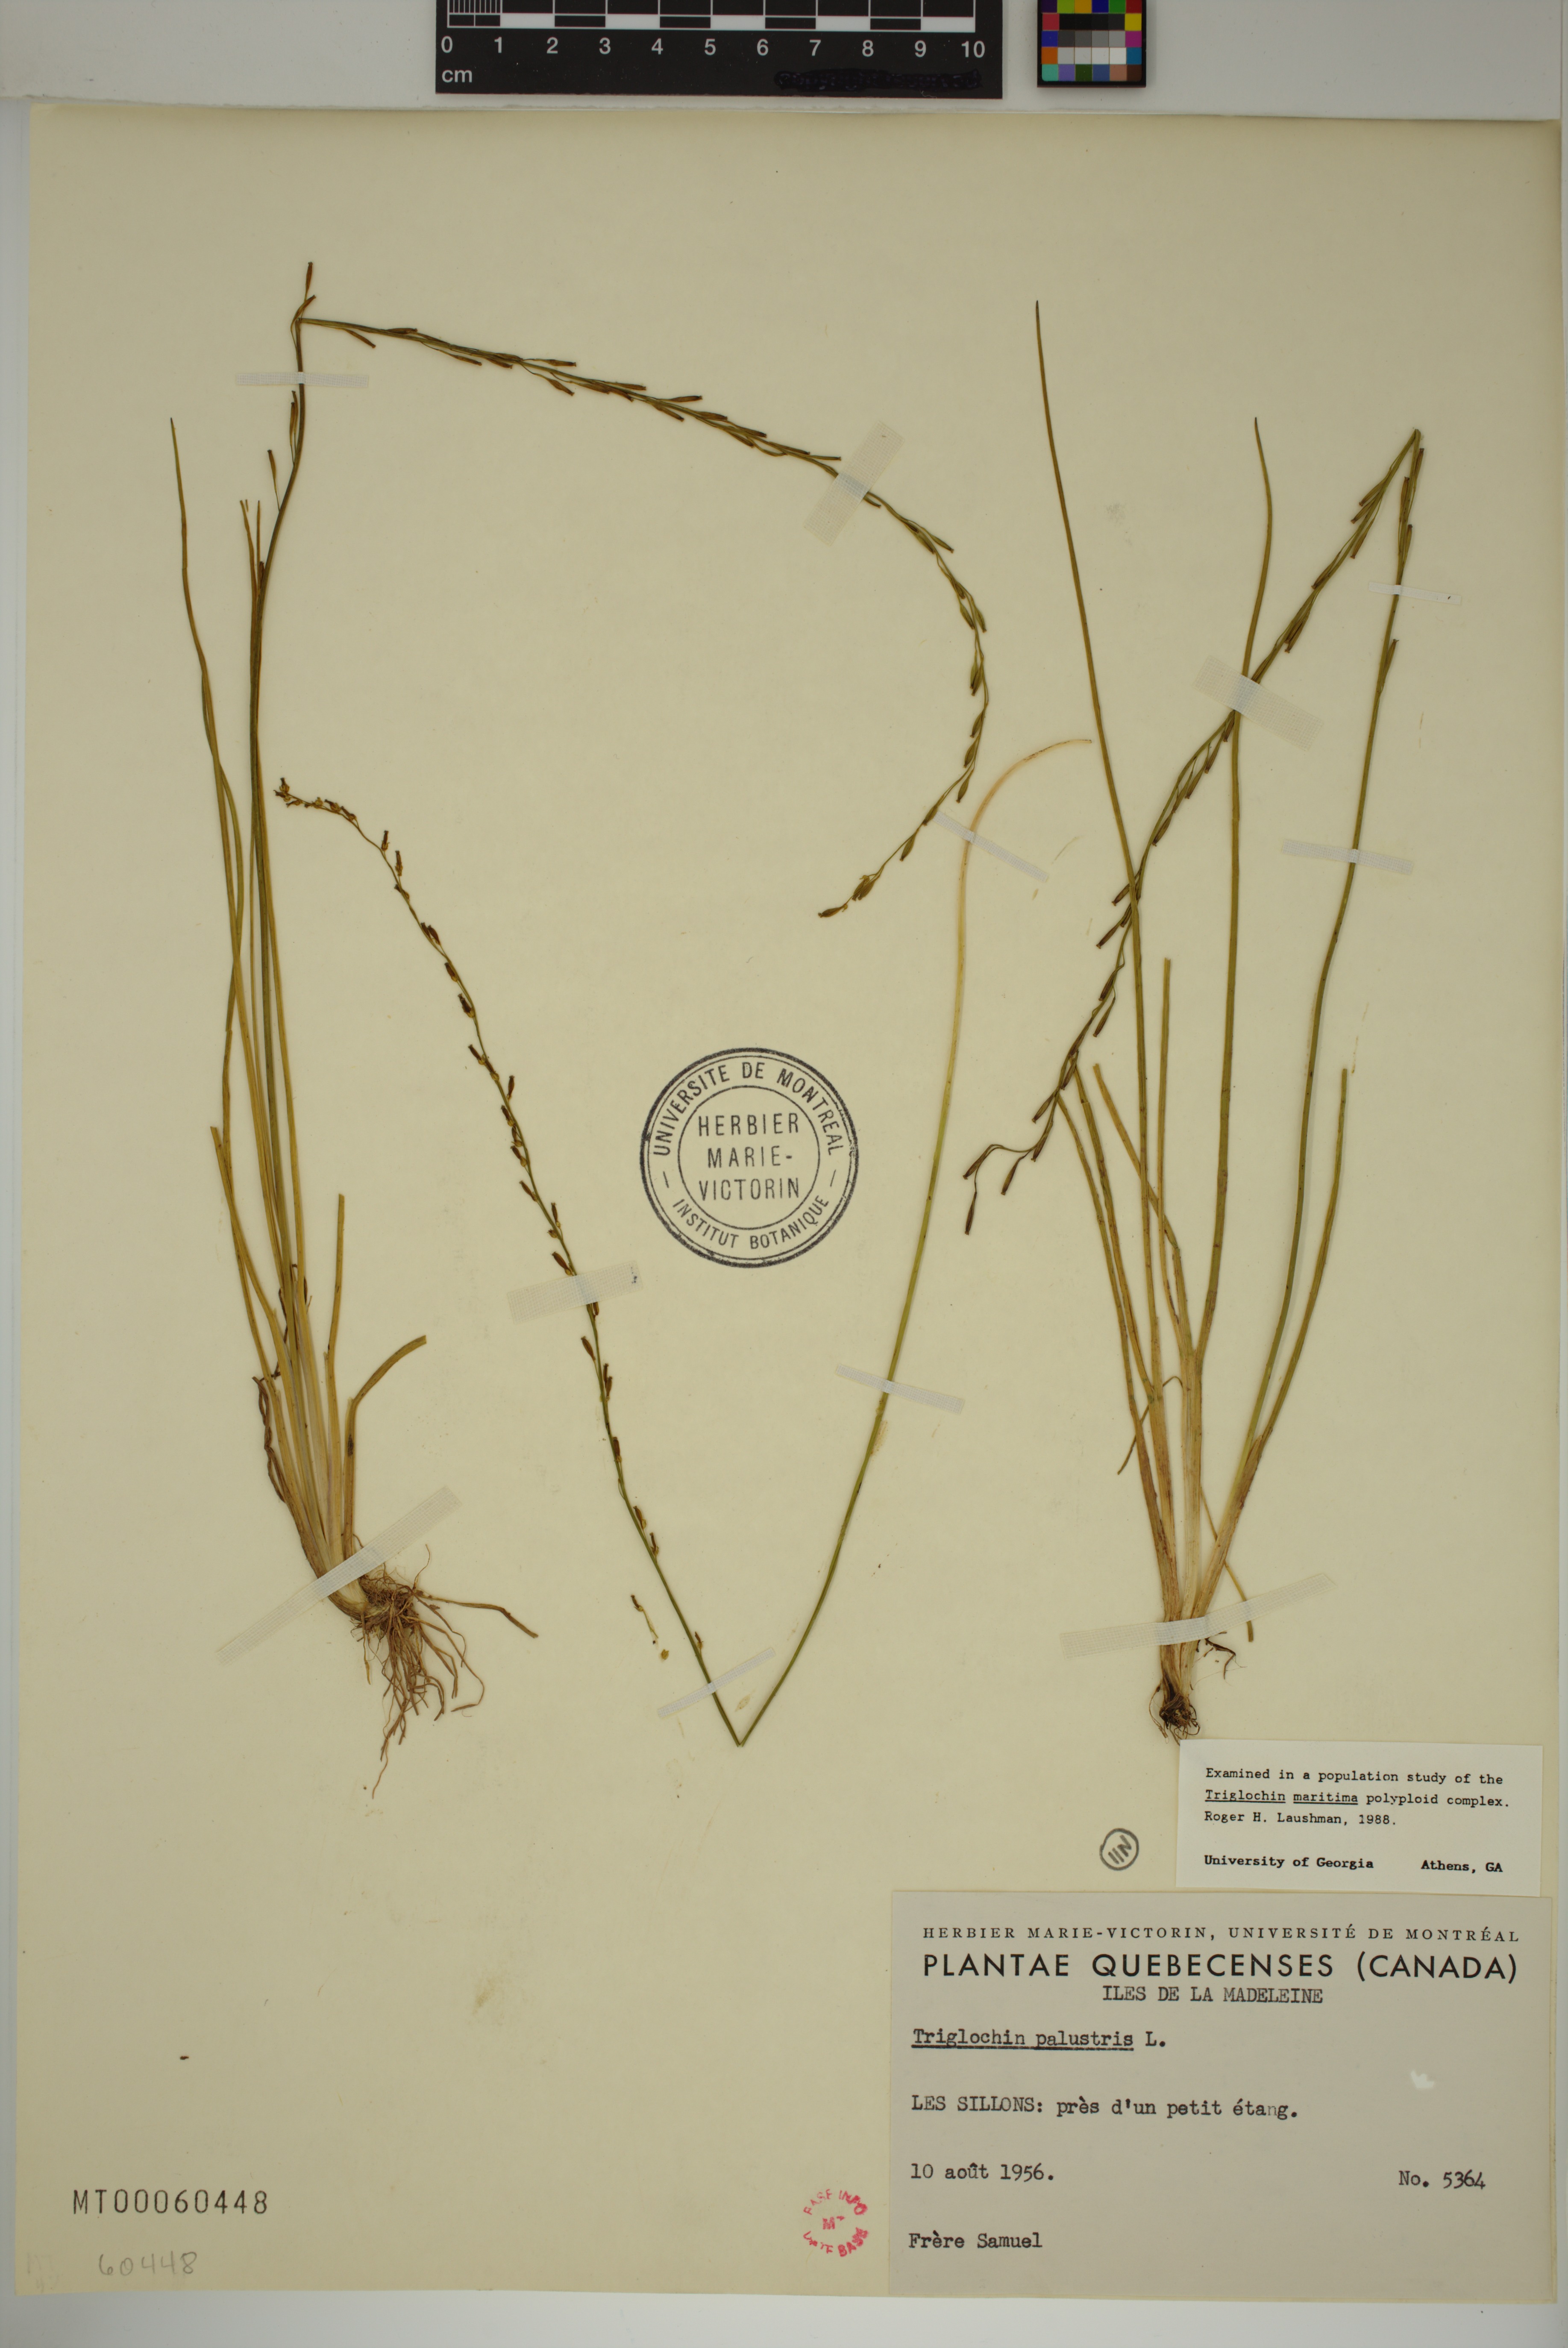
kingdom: Plantae
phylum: Tracheophyta
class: Liliopsida
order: Alismatales
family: Juncaginaceae
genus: Triglochin
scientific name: Triglochin palustris
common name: Marsh arrowgrass
